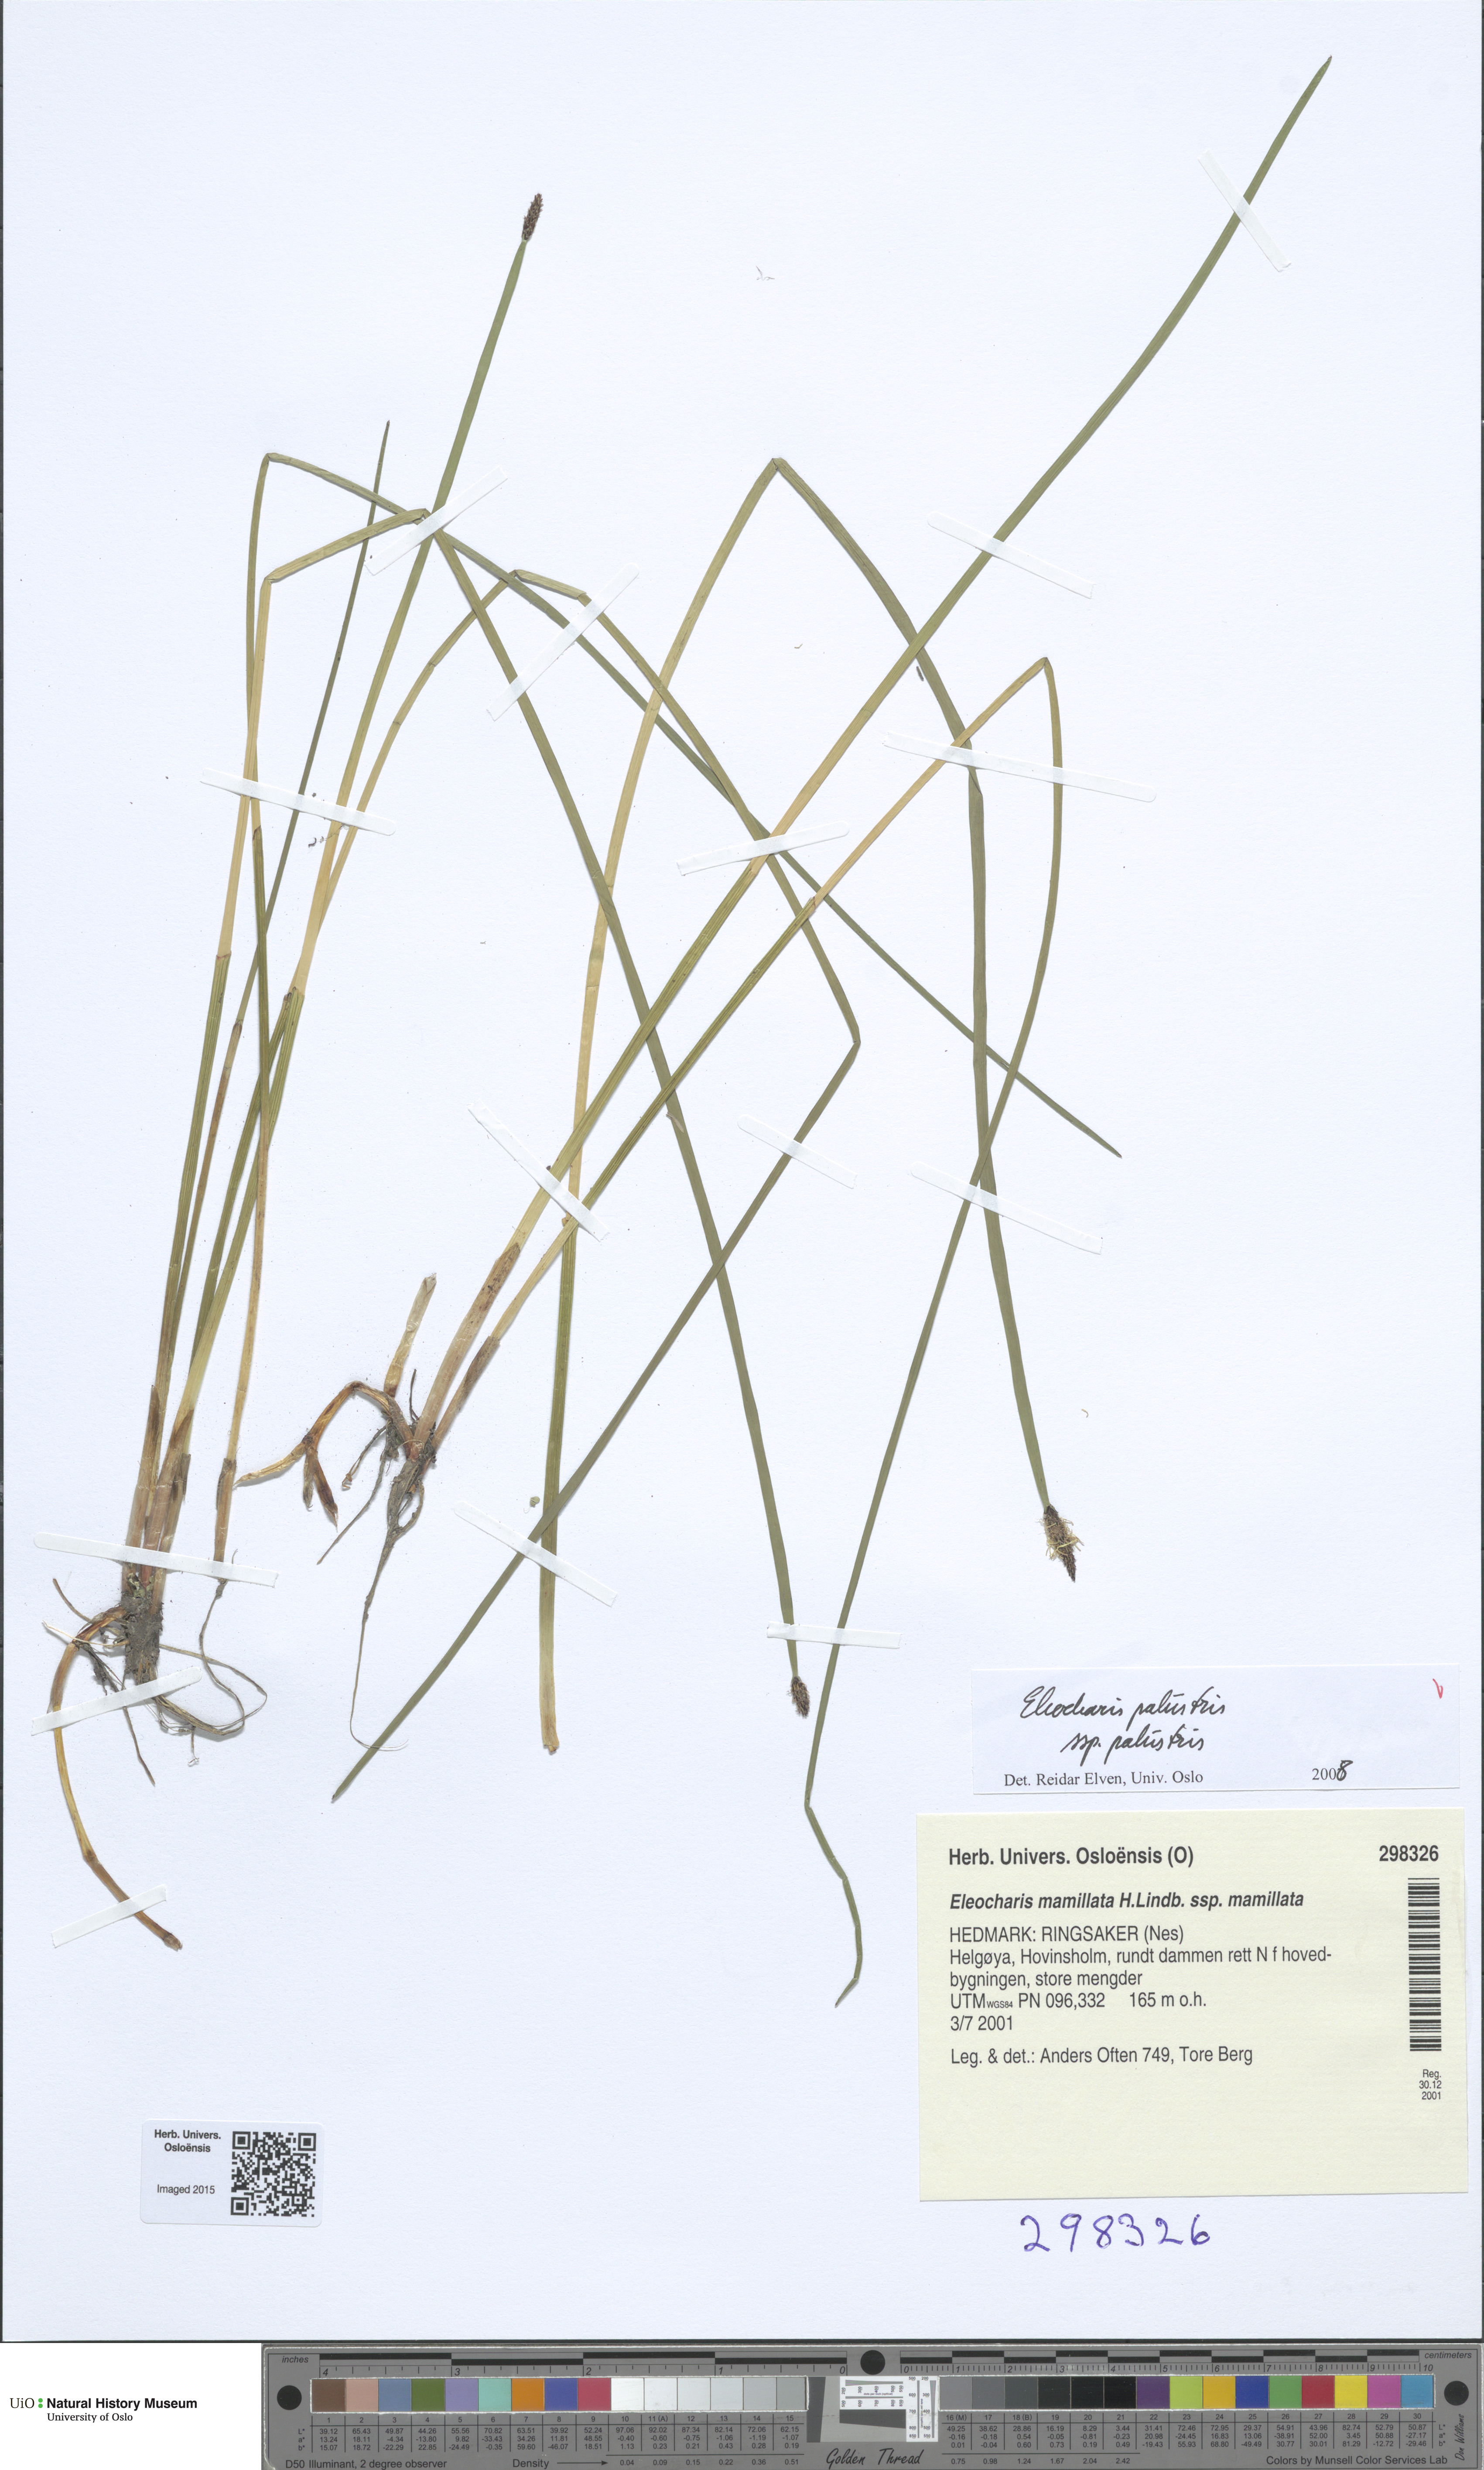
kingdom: Plantae
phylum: Tracheophyta
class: Liliopsida
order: Poales
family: Cyperaceae
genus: Eleocharis
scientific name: Eleocharis palustris
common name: Common spike-rush
